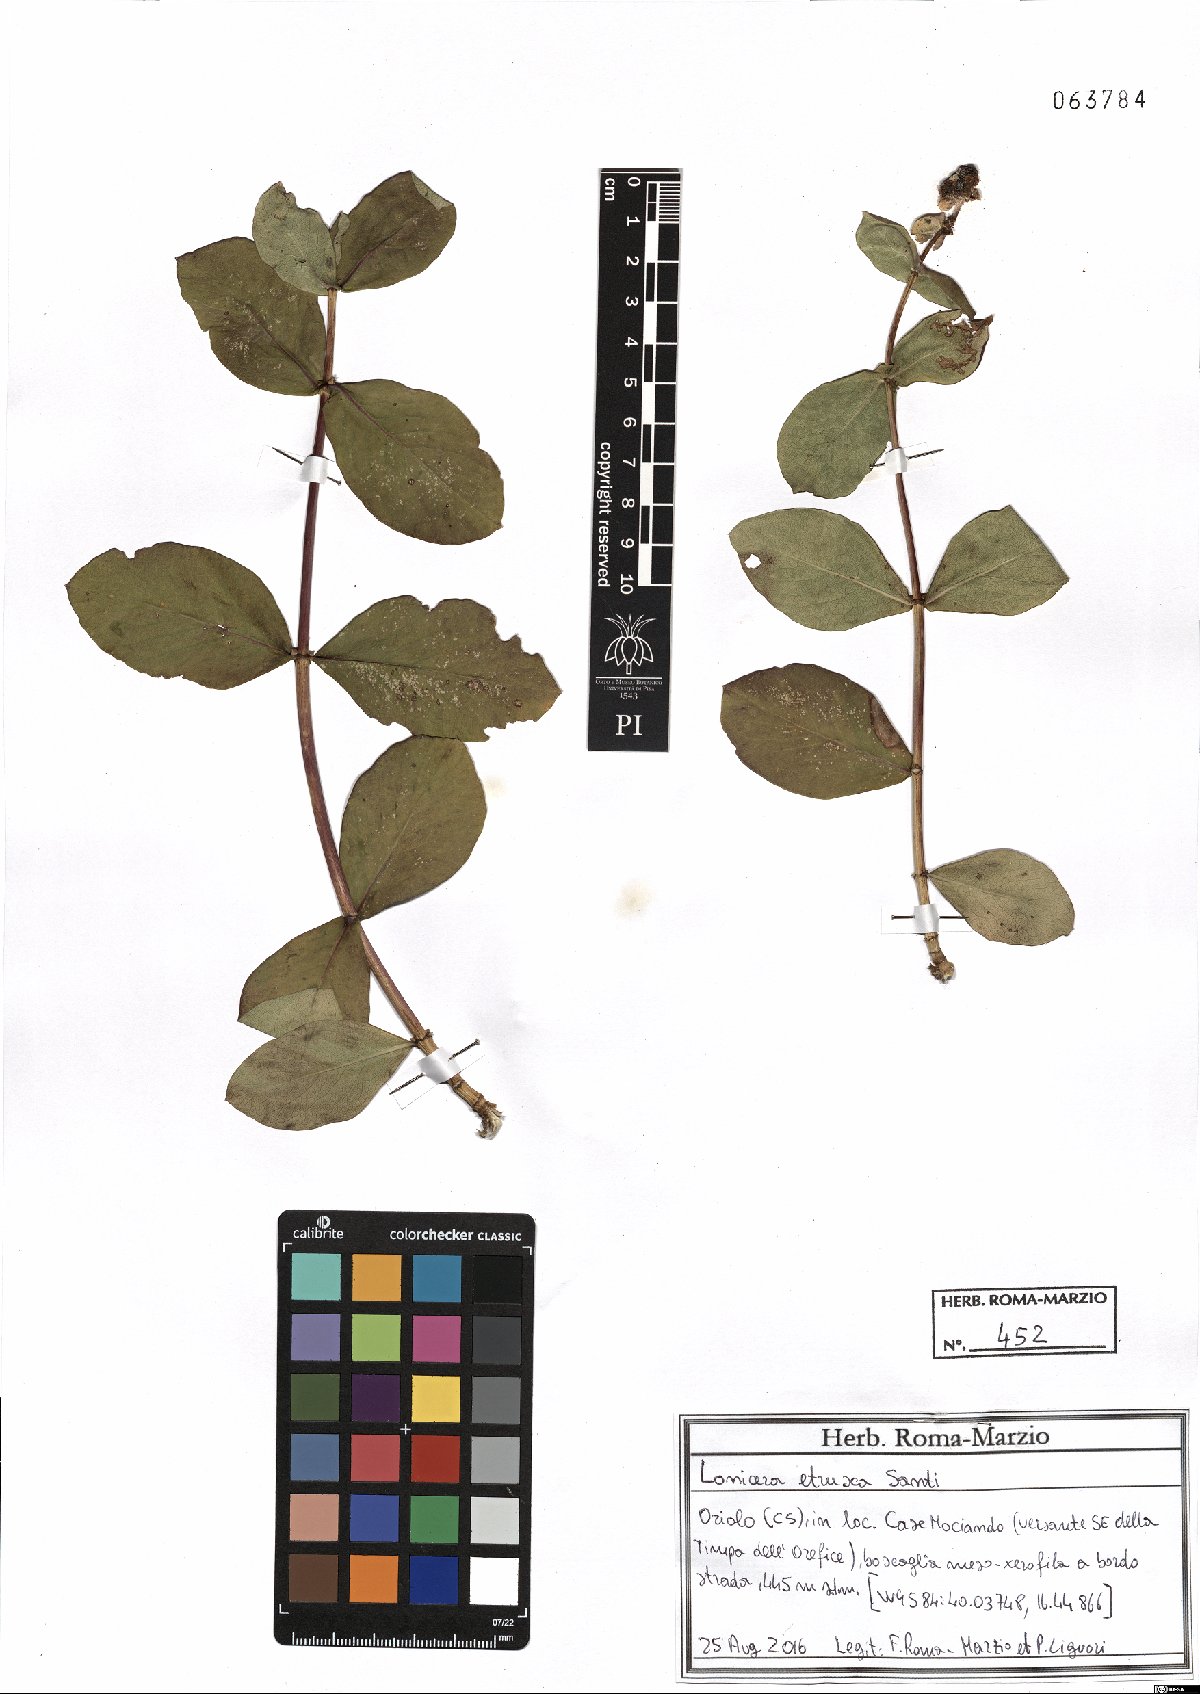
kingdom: Plantae
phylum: Tracheophyta
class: Magnoliopsida
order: Dipsacales
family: Caprifoliaceae
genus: Lonicera
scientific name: Lonicera etrusca
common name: Etruscan honeysuckle
